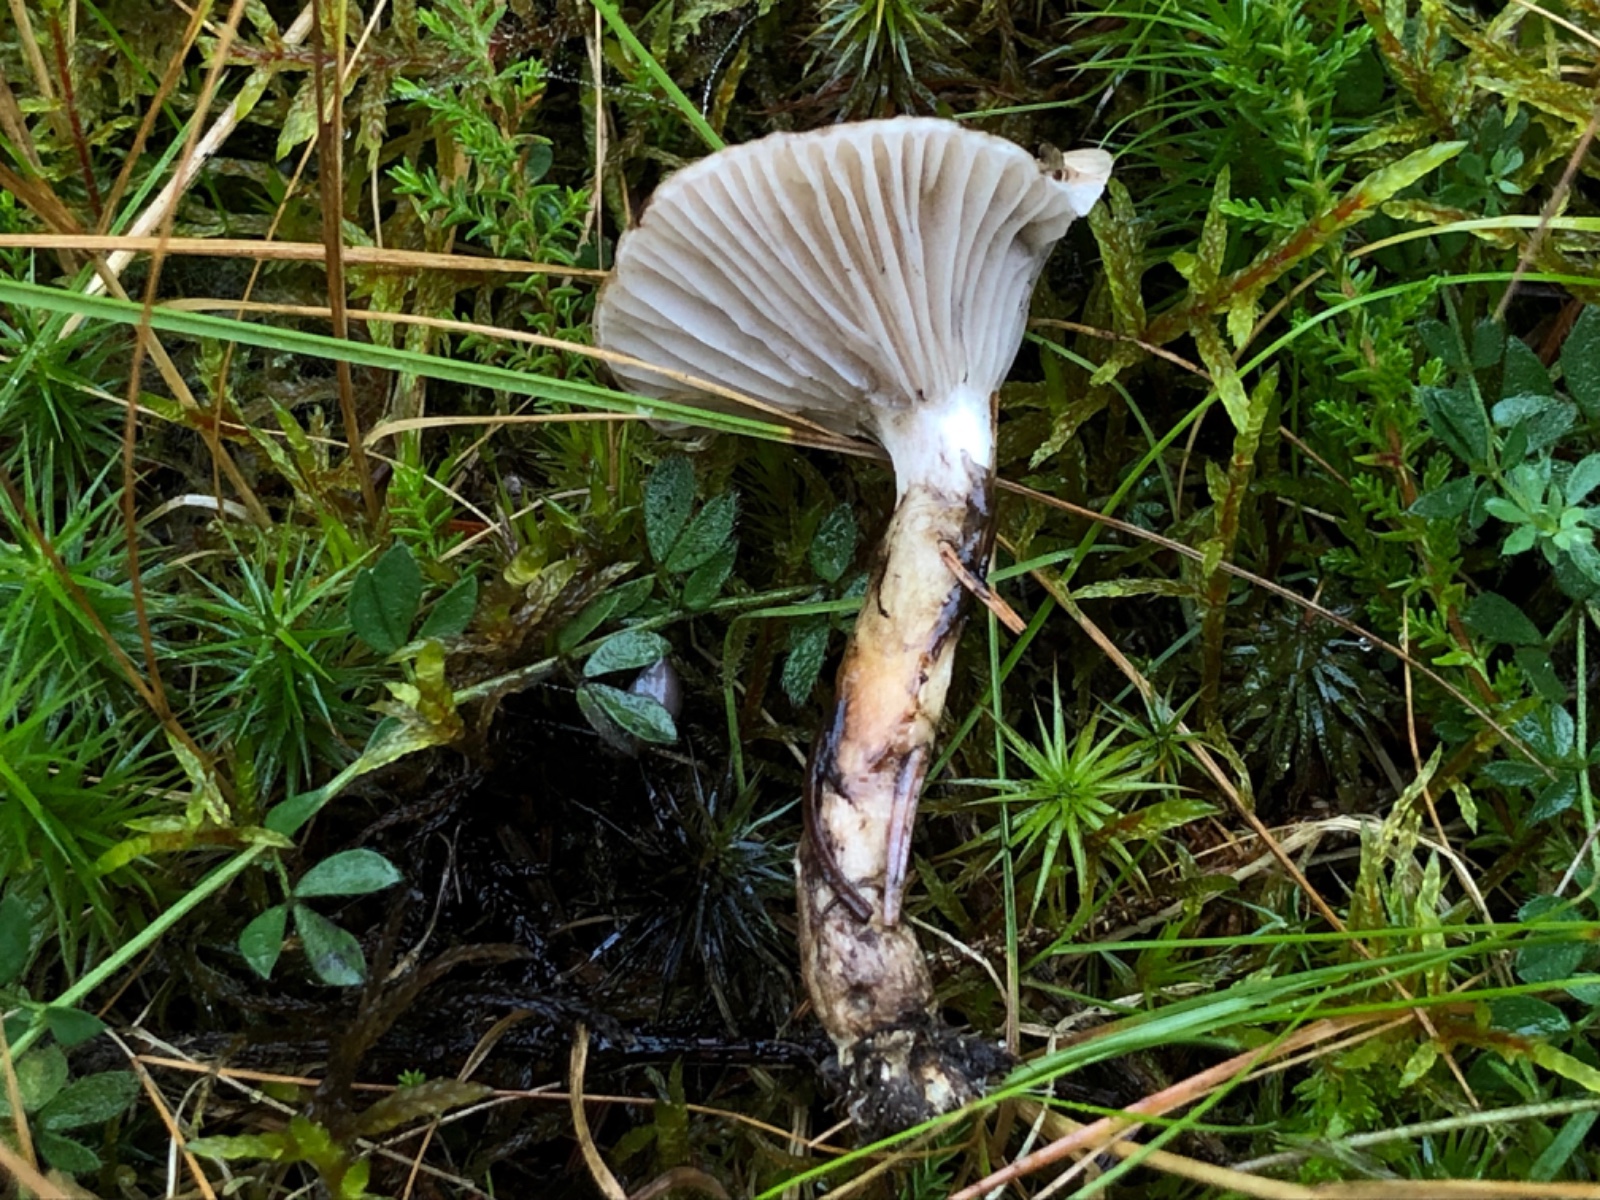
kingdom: Fungi
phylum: Basidiomycota
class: Agaricomycetes
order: Boletales
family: Gomphidiaceae
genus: Gomphidius
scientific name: Gomphidius
